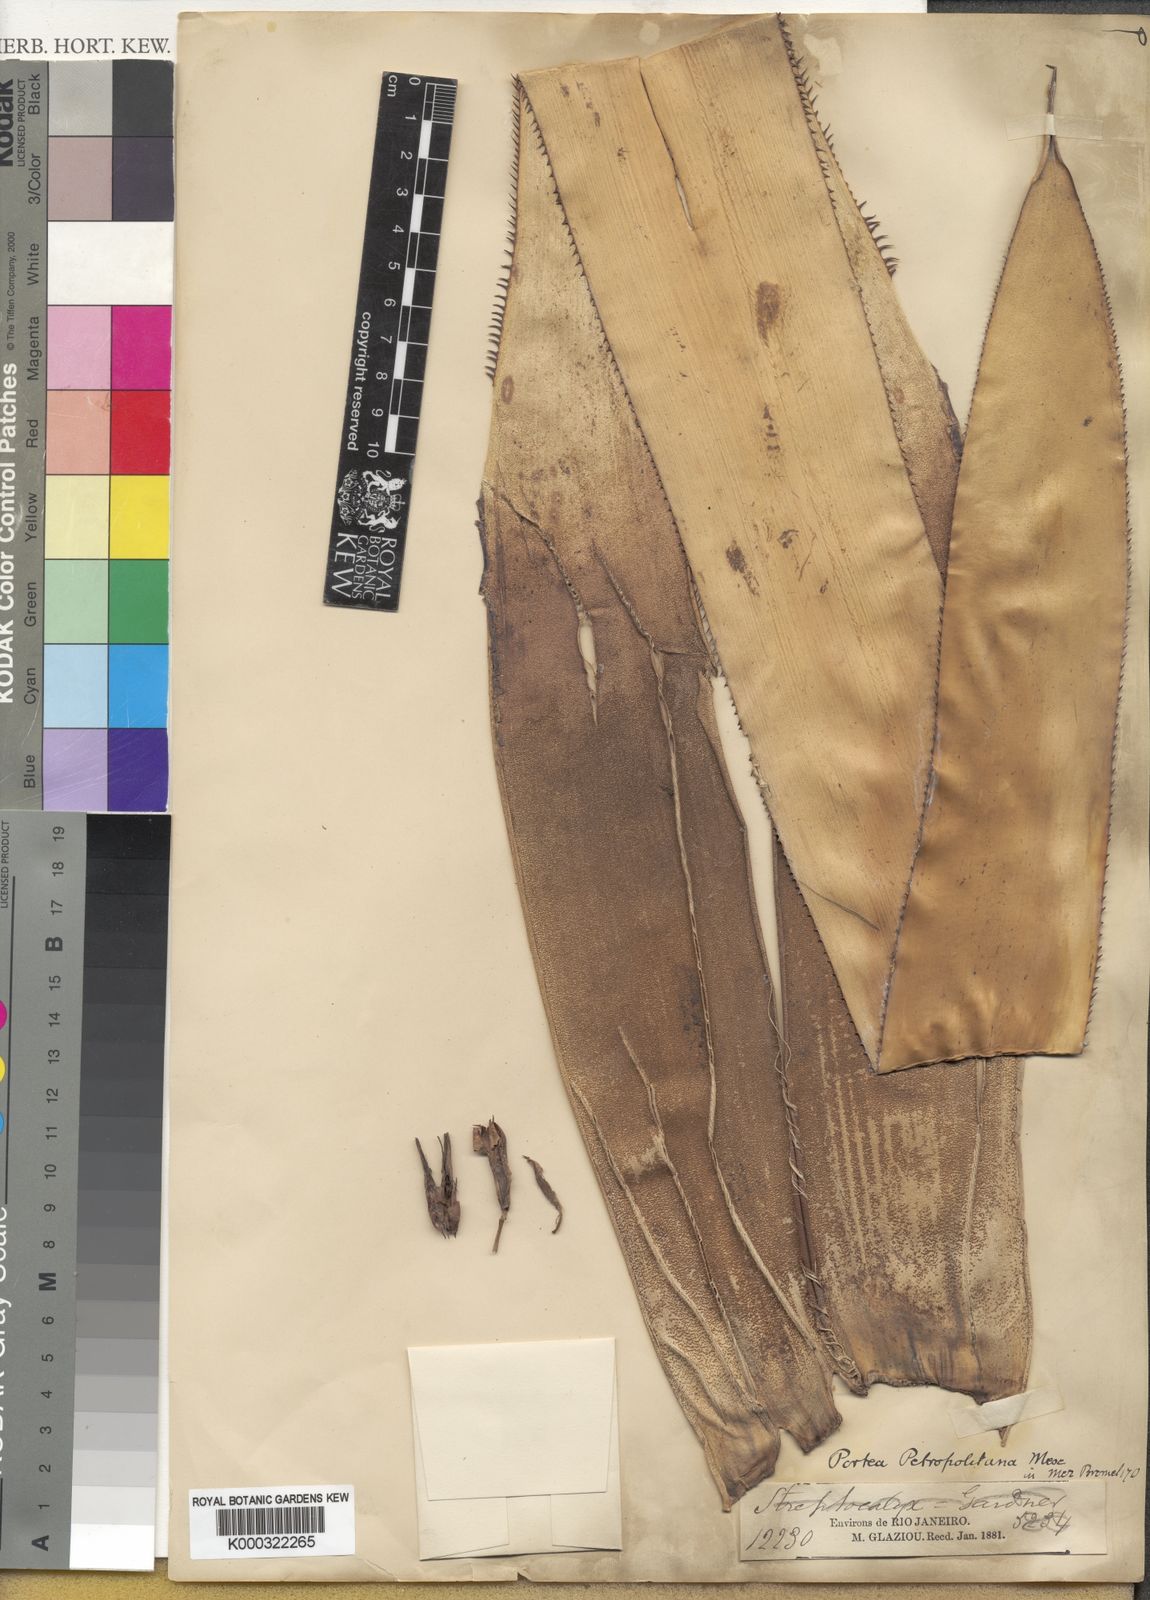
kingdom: Plantae
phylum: Tracheophyta
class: Liliopsida
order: Poales
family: Bromeliaceae
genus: Portea
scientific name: Portea petropolitana
